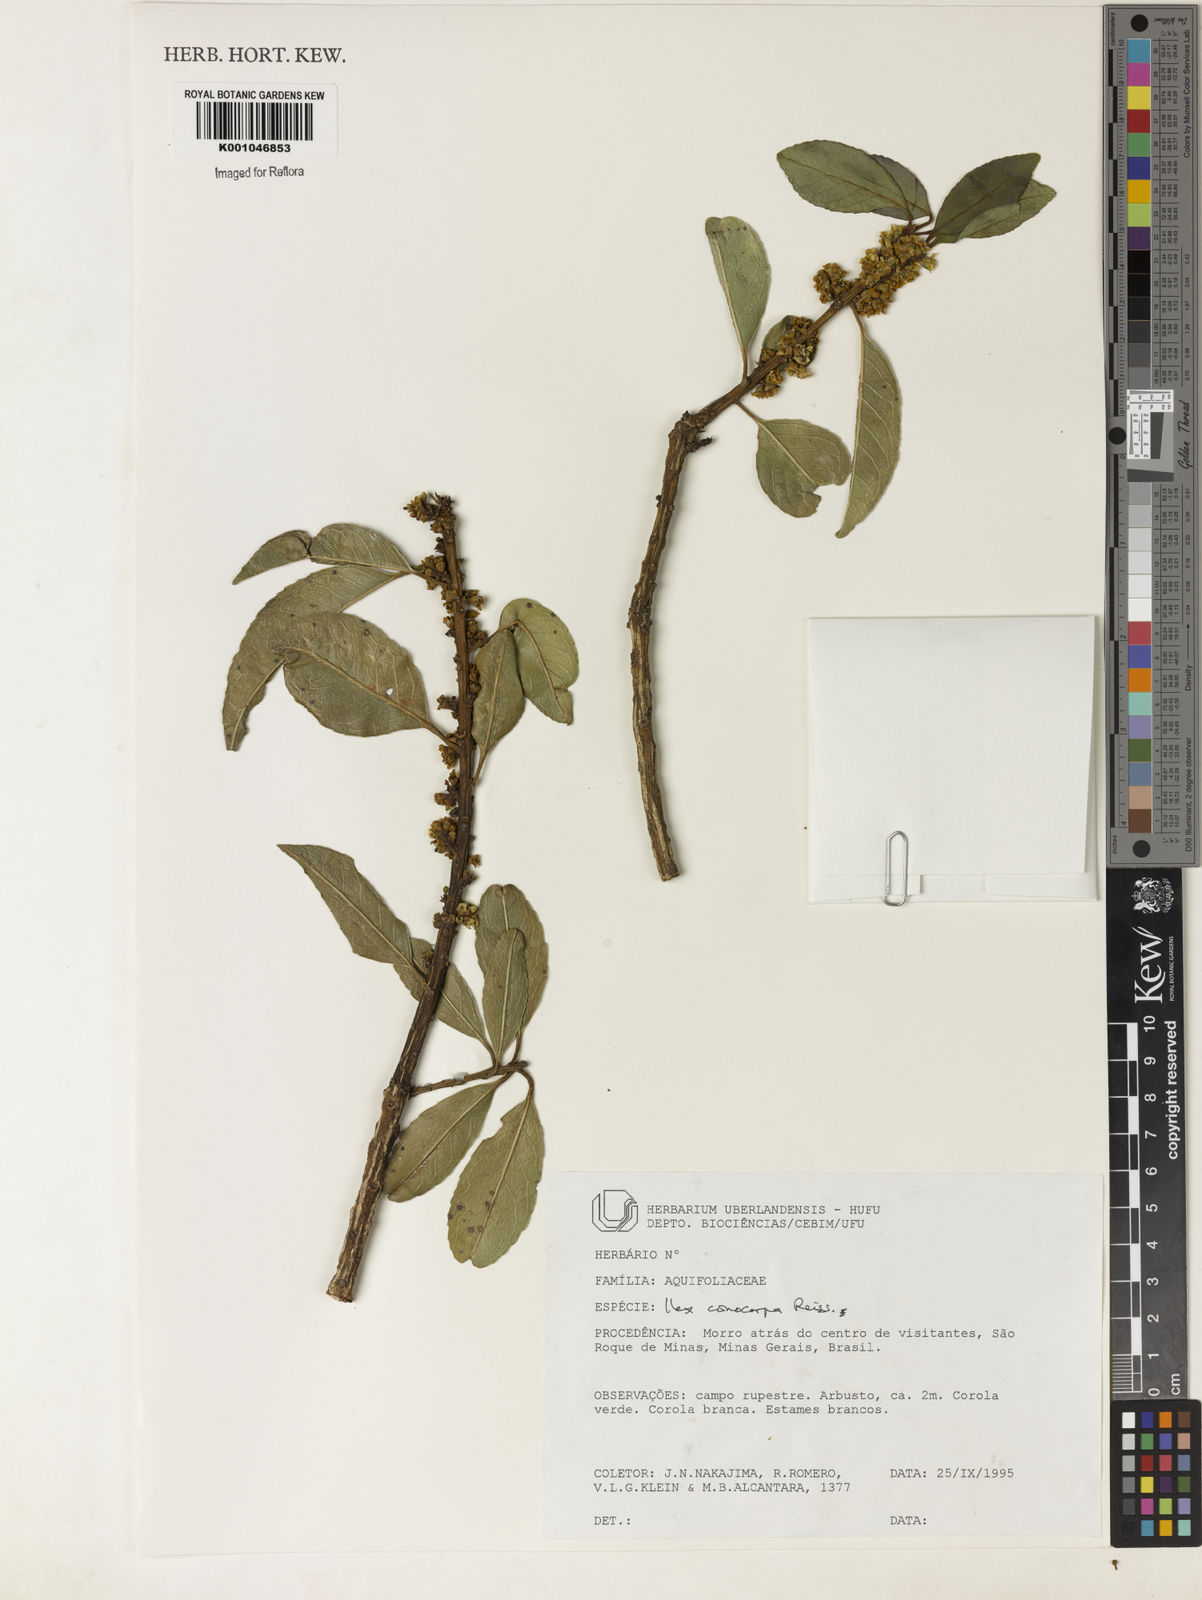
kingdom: Plantae
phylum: Tracheophyta
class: Magnoliopsida
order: Aquifoliales
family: Aquifoliaceae
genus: Ilex
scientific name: Ilex conocarpa
